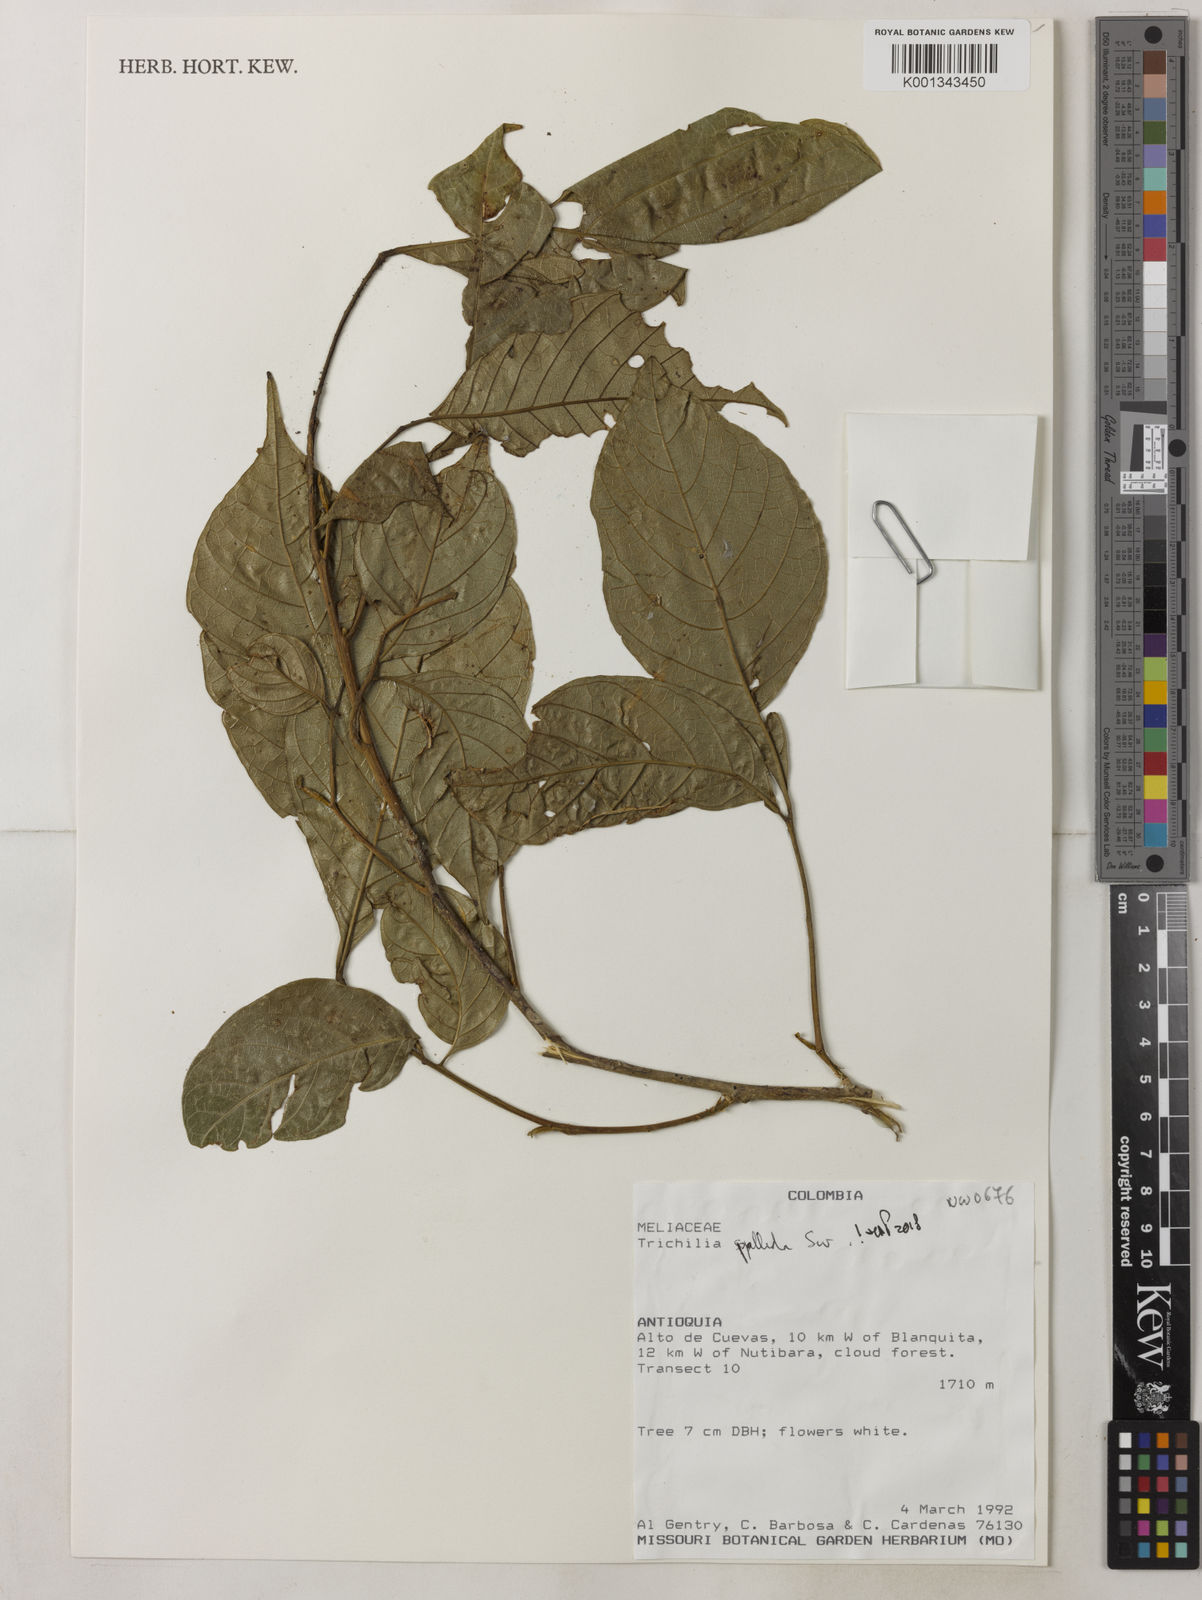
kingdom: Plantae
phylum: Tracheophyta
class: Magnoliopsida
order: Sapindales
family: Meliaceae
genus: Trichilia
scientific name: Trichilia pallida
